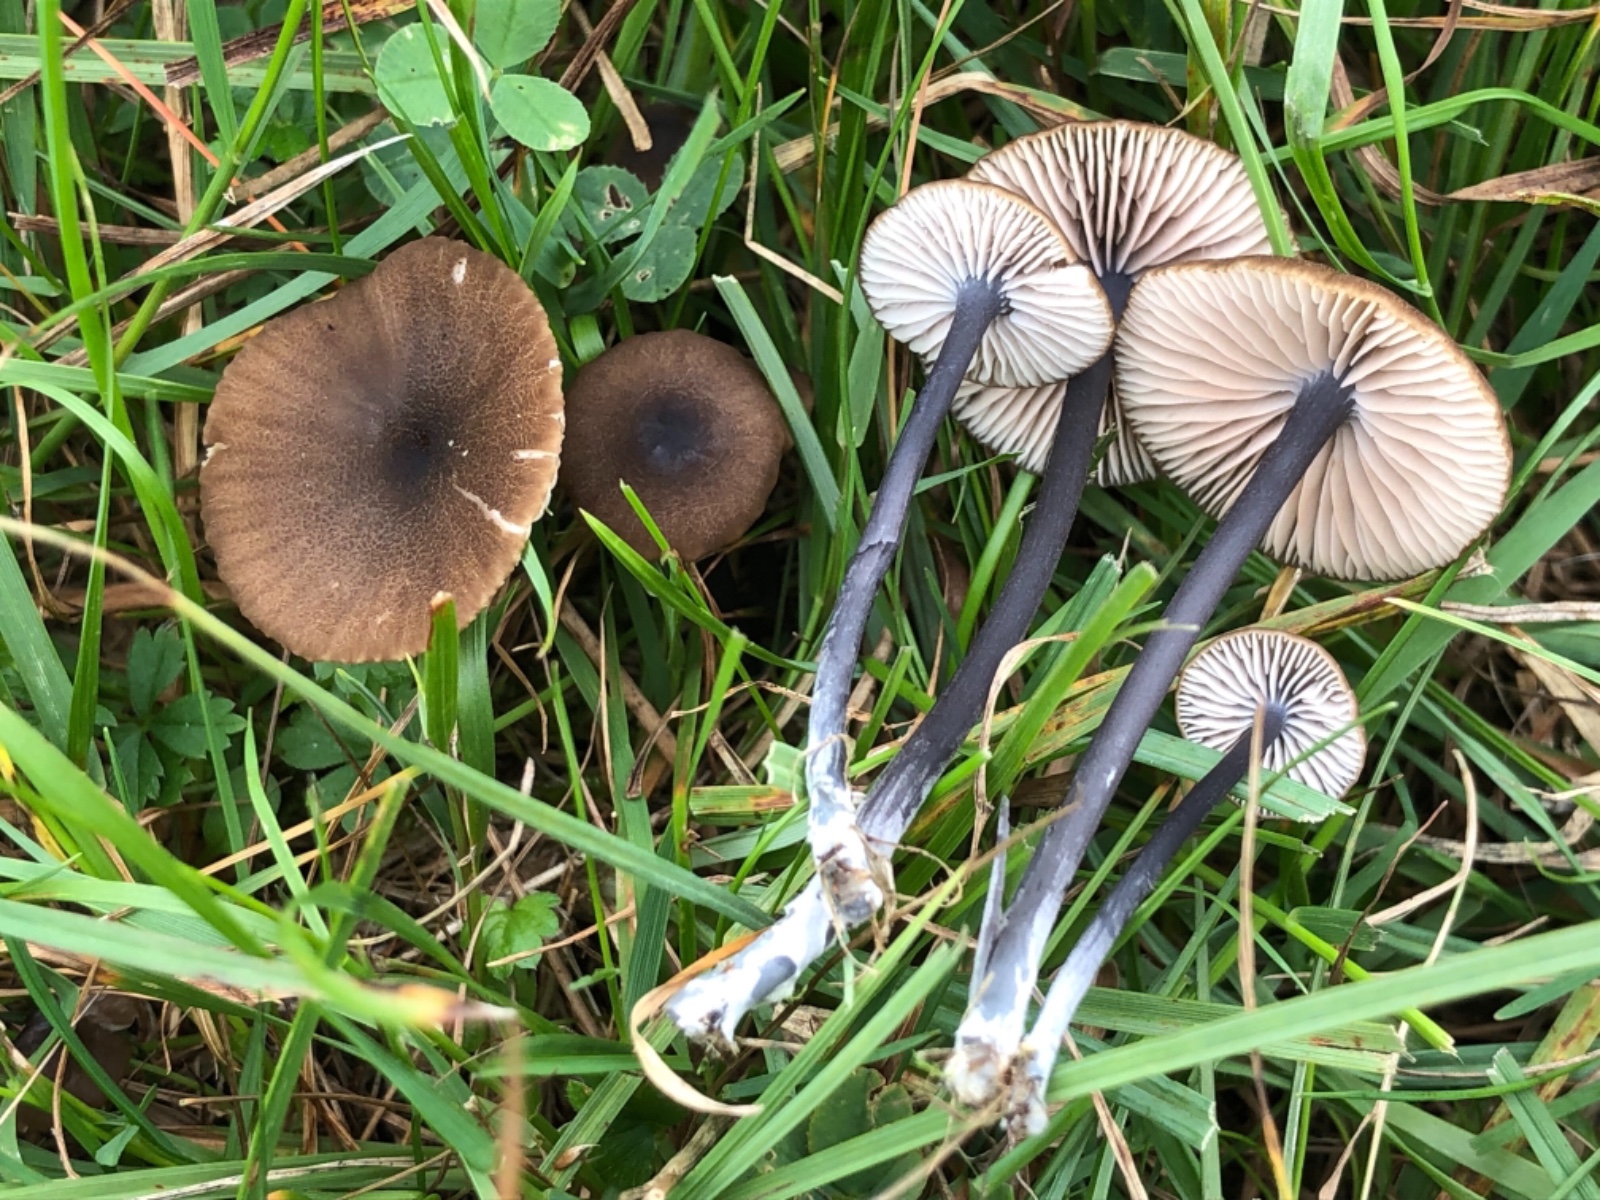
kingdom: Fungi
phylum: Basidiomycota
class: Agaricomycetes
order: Agaricales
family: Entolomataceae
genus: Entoloma
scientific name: Entoloma asprellum
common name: ru rødblad
